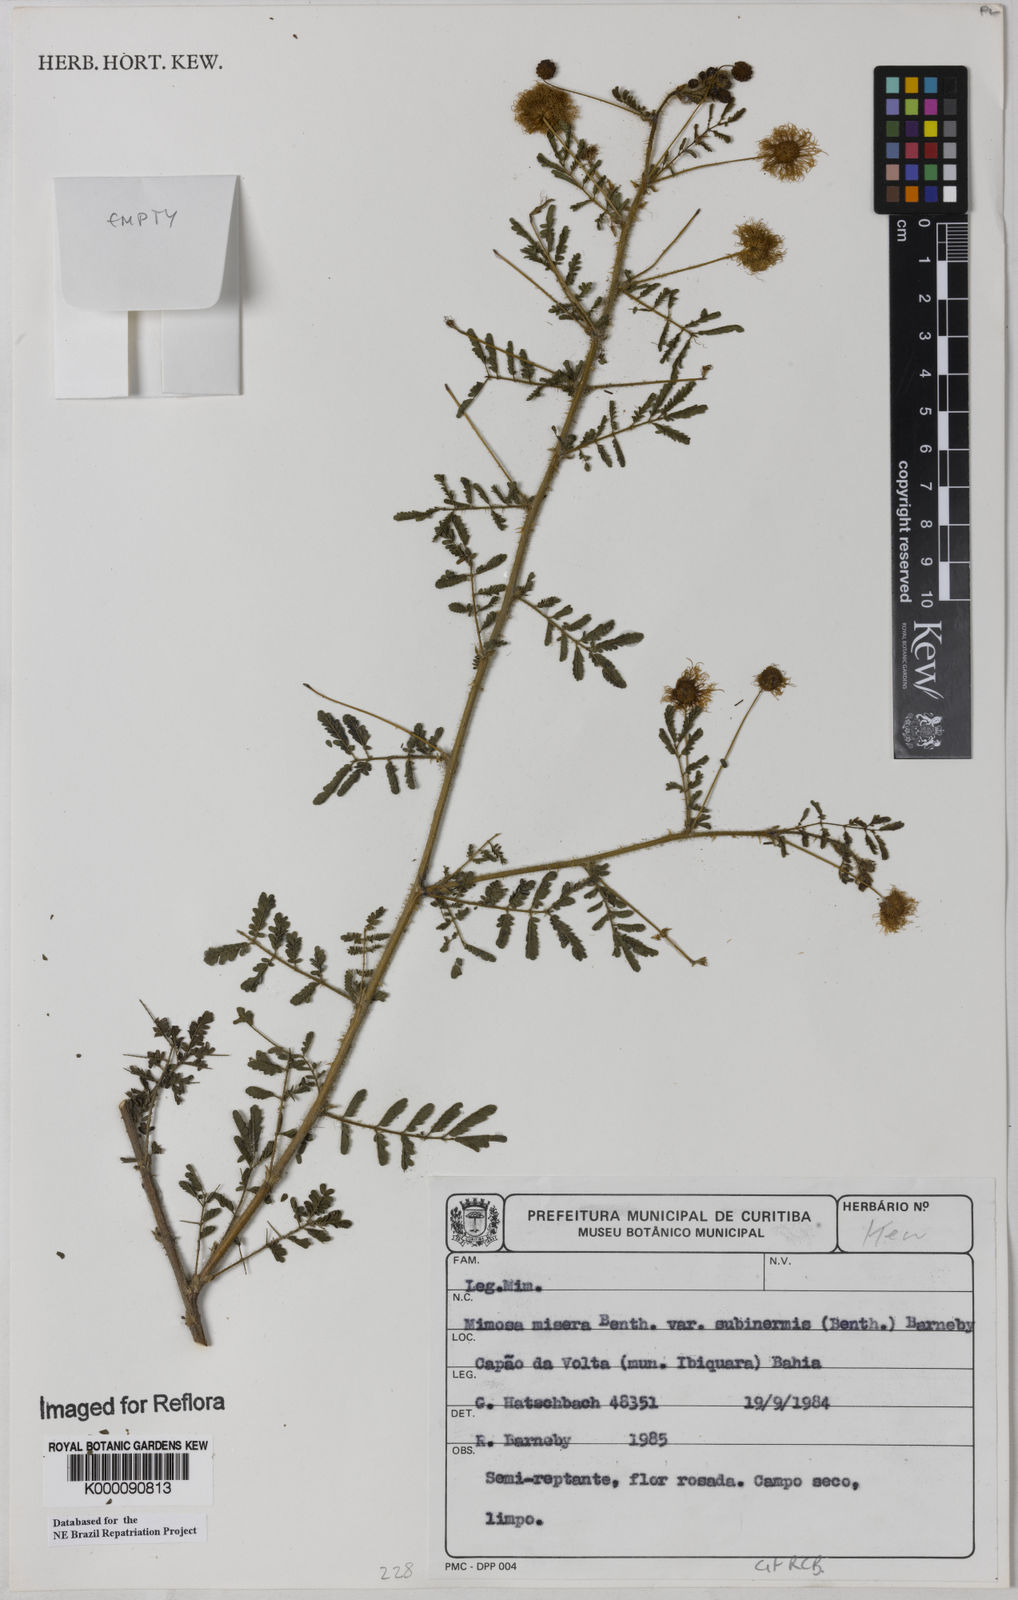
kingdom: Plantae
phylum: Tracheophyta
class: Magnoliopsida
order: Fabales
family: Fabaceae
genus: Mimosa
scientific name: Mimosa misera
